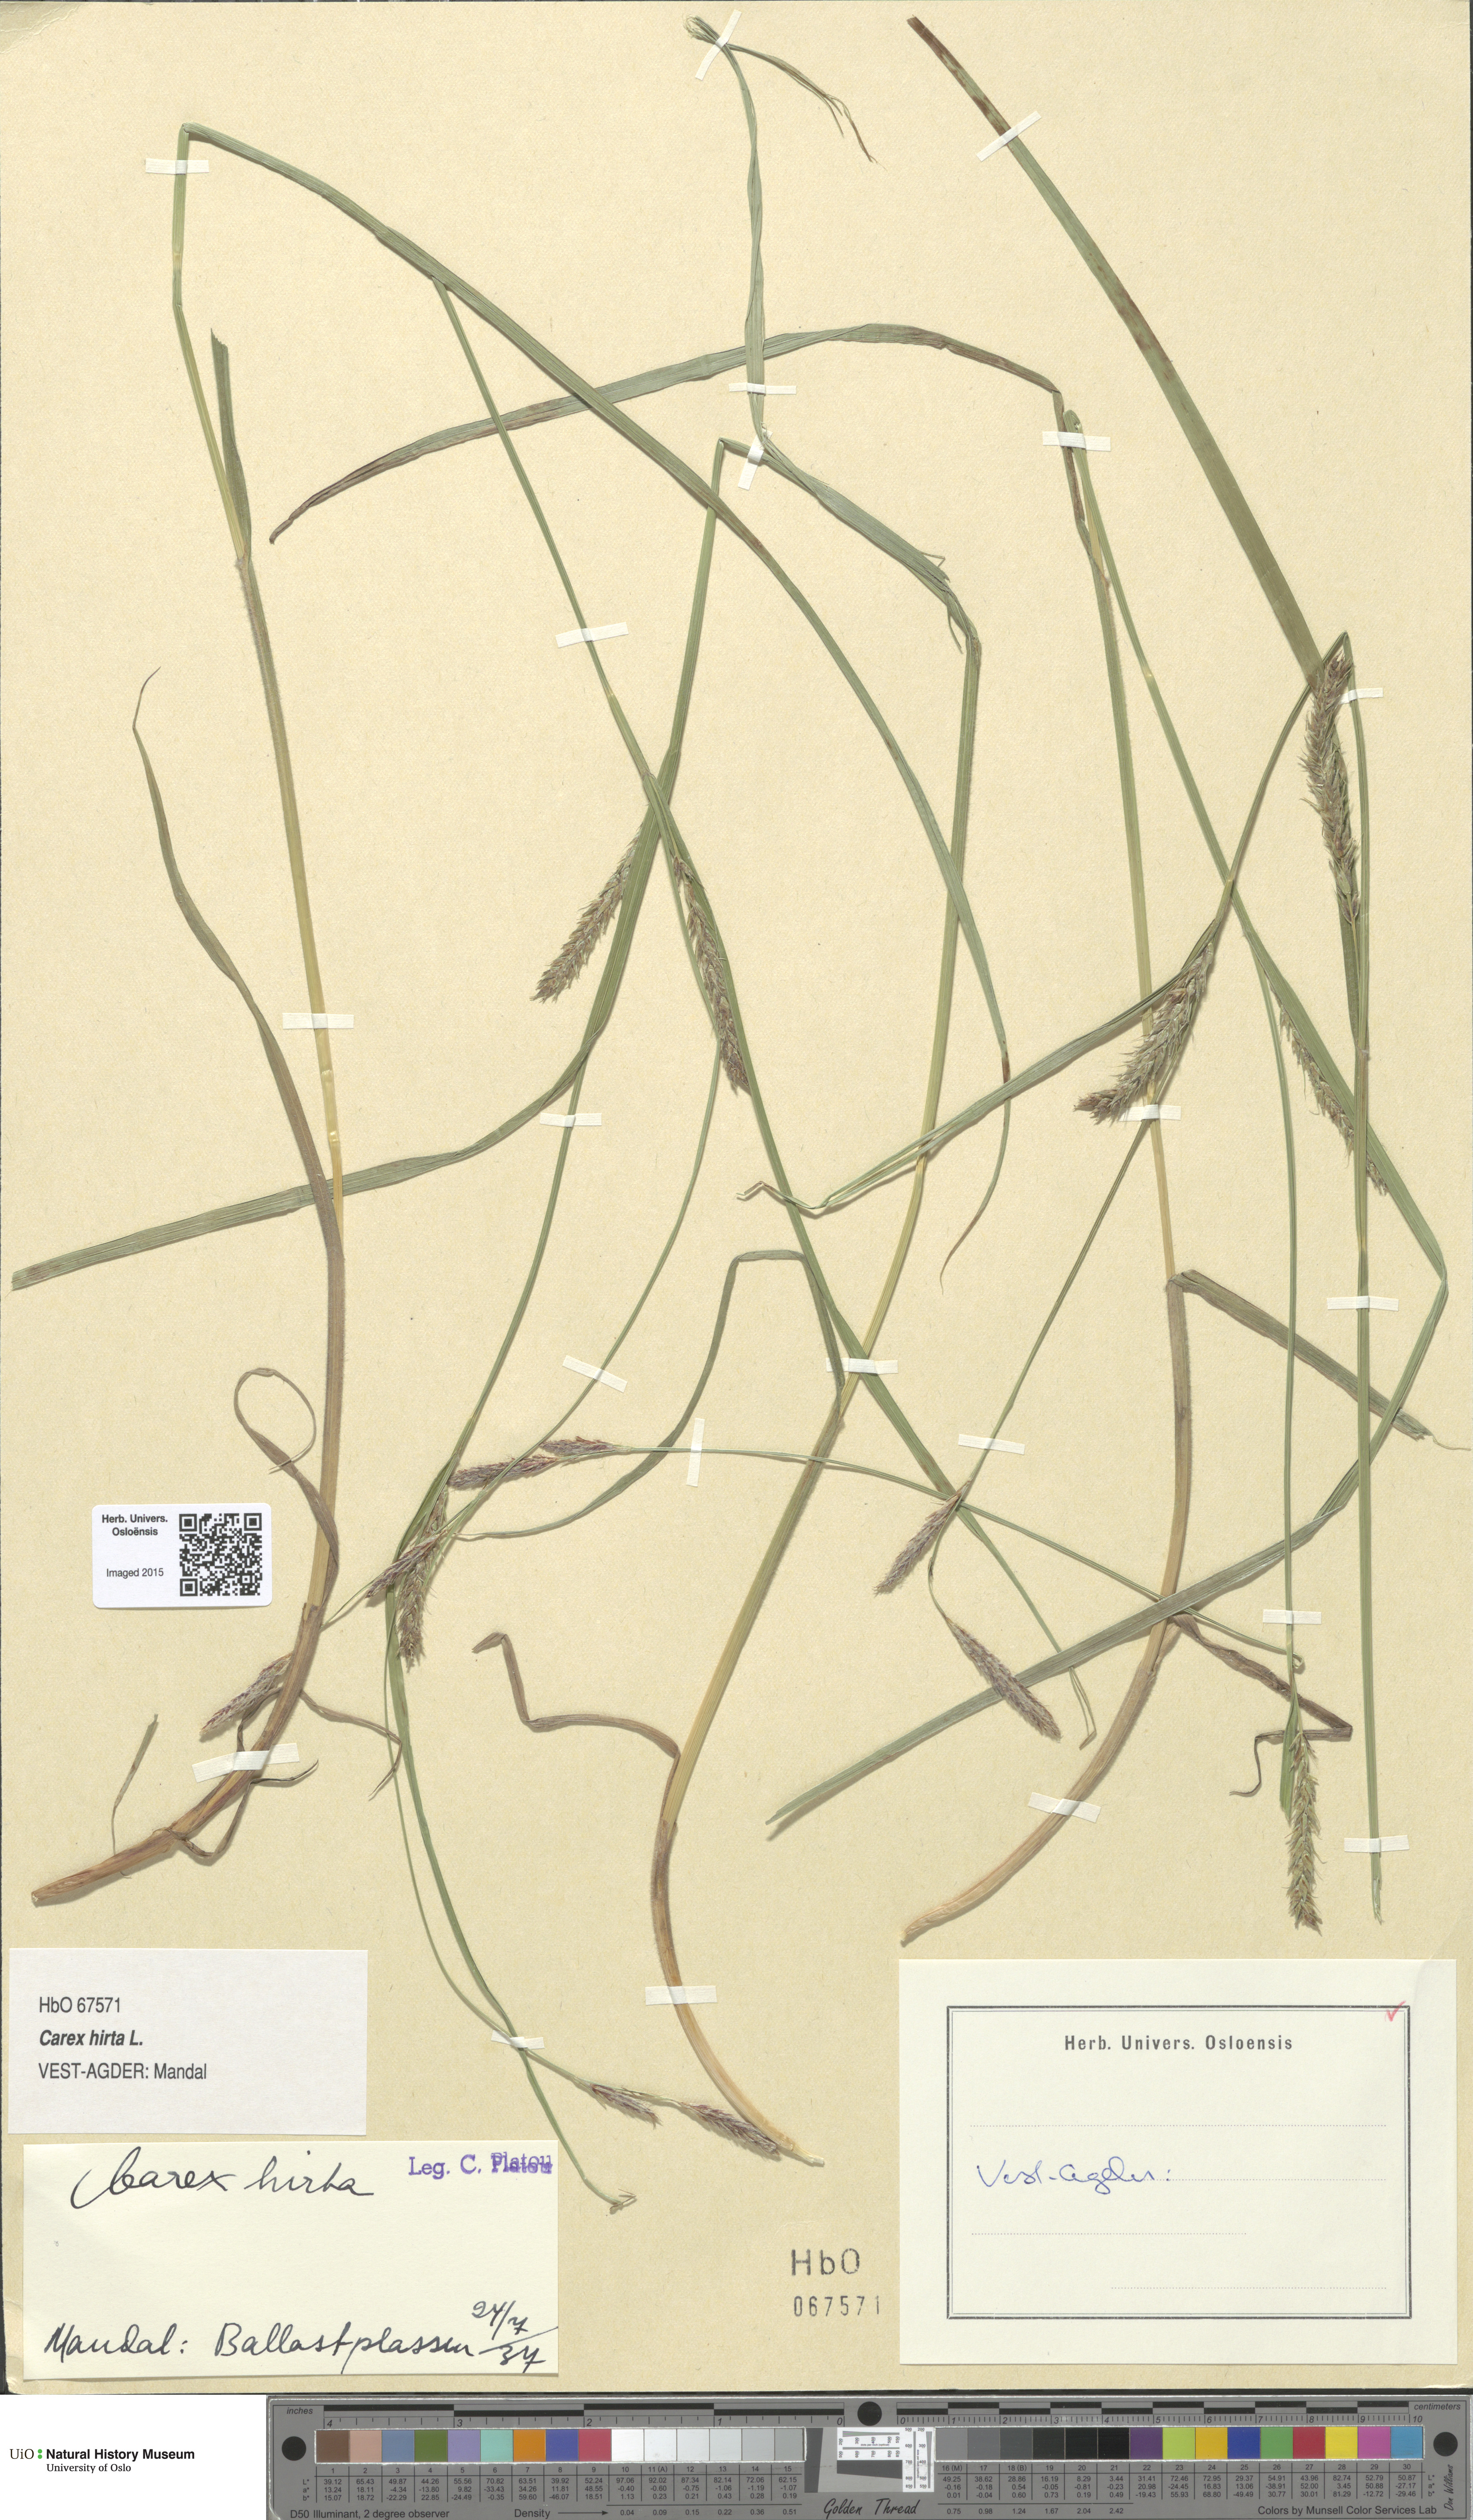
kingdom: Plantae
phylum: Tracheophyta
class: Liliopsida
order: Poales
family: Cyperaceae
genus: Carex
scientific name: Carex hirta
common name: Hairy sedge
